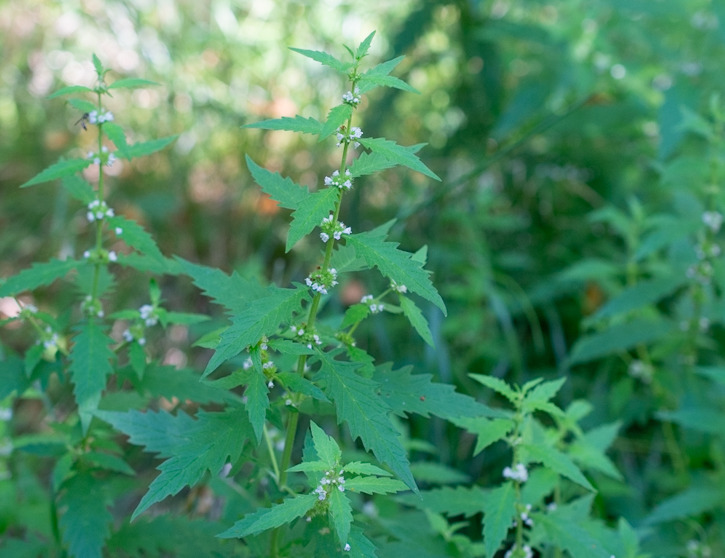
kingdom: Plantae
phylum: Tracheophyta
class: Magnoliopsida
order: Lamiales
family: Lamiaceae
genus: Lycopus
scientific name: Lycopus europaeus
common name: Sværtevæld
